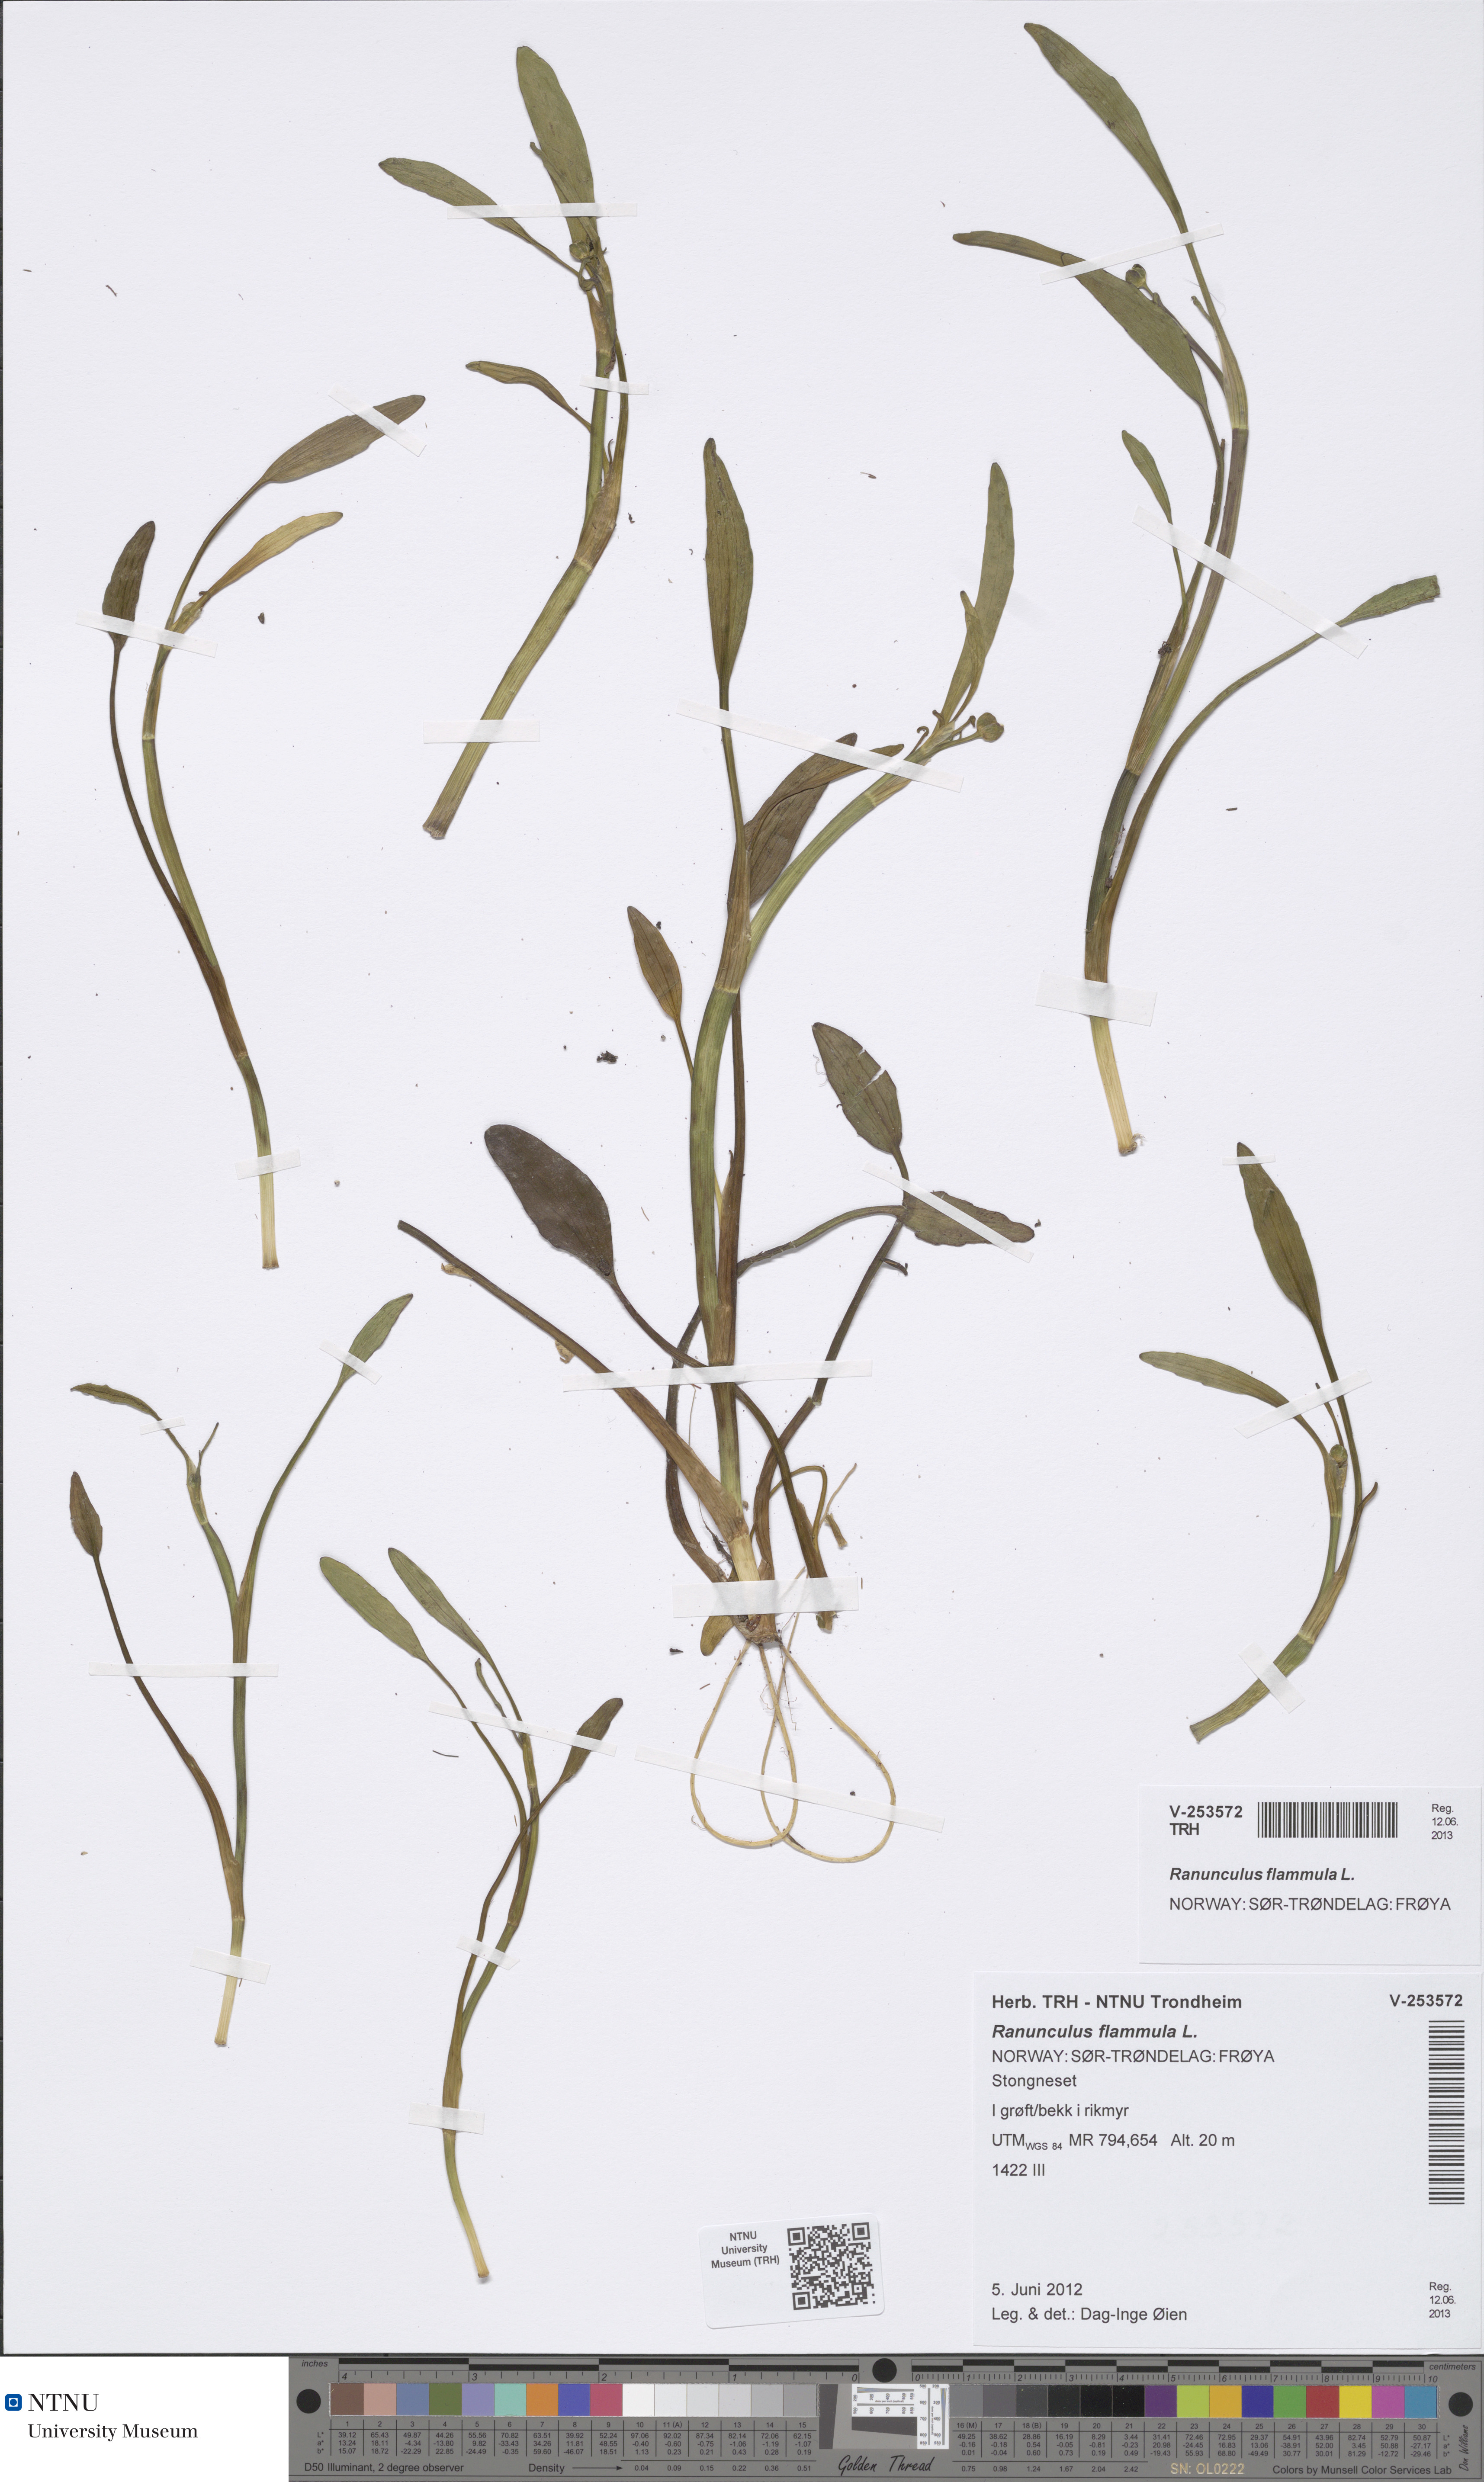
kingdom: Plantae
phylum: Tracheophyta
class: Magnoliopsida
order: Ranunculales
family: Ranunculaceae
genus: Ranunculus
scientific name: Ranunculus flammula
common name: Lesser spearwort
